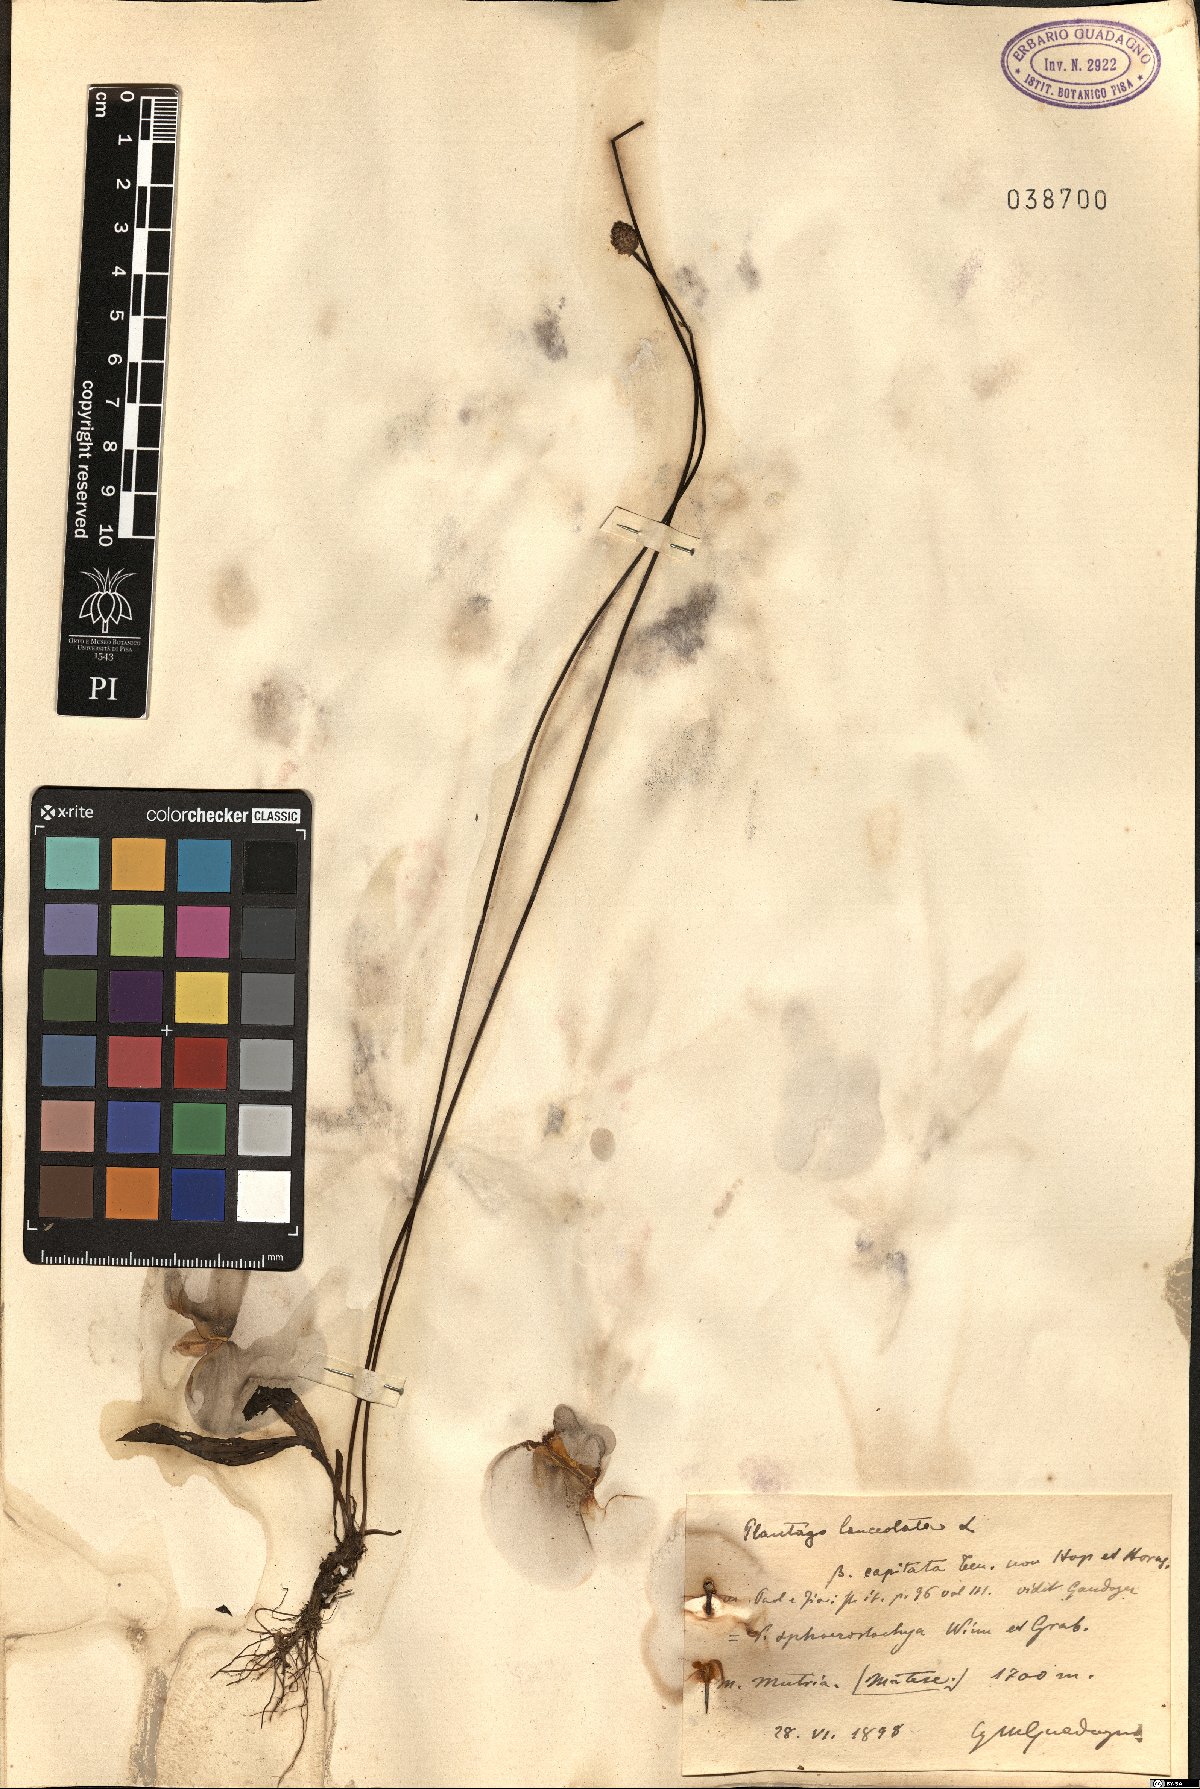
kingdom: Plantae
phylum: Tracheophyta
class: Magnoliopsida
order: Lamiales
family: Plantaginaceae
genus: Plantago
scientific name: Plantago lanceolata
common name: Ribwort plantain
